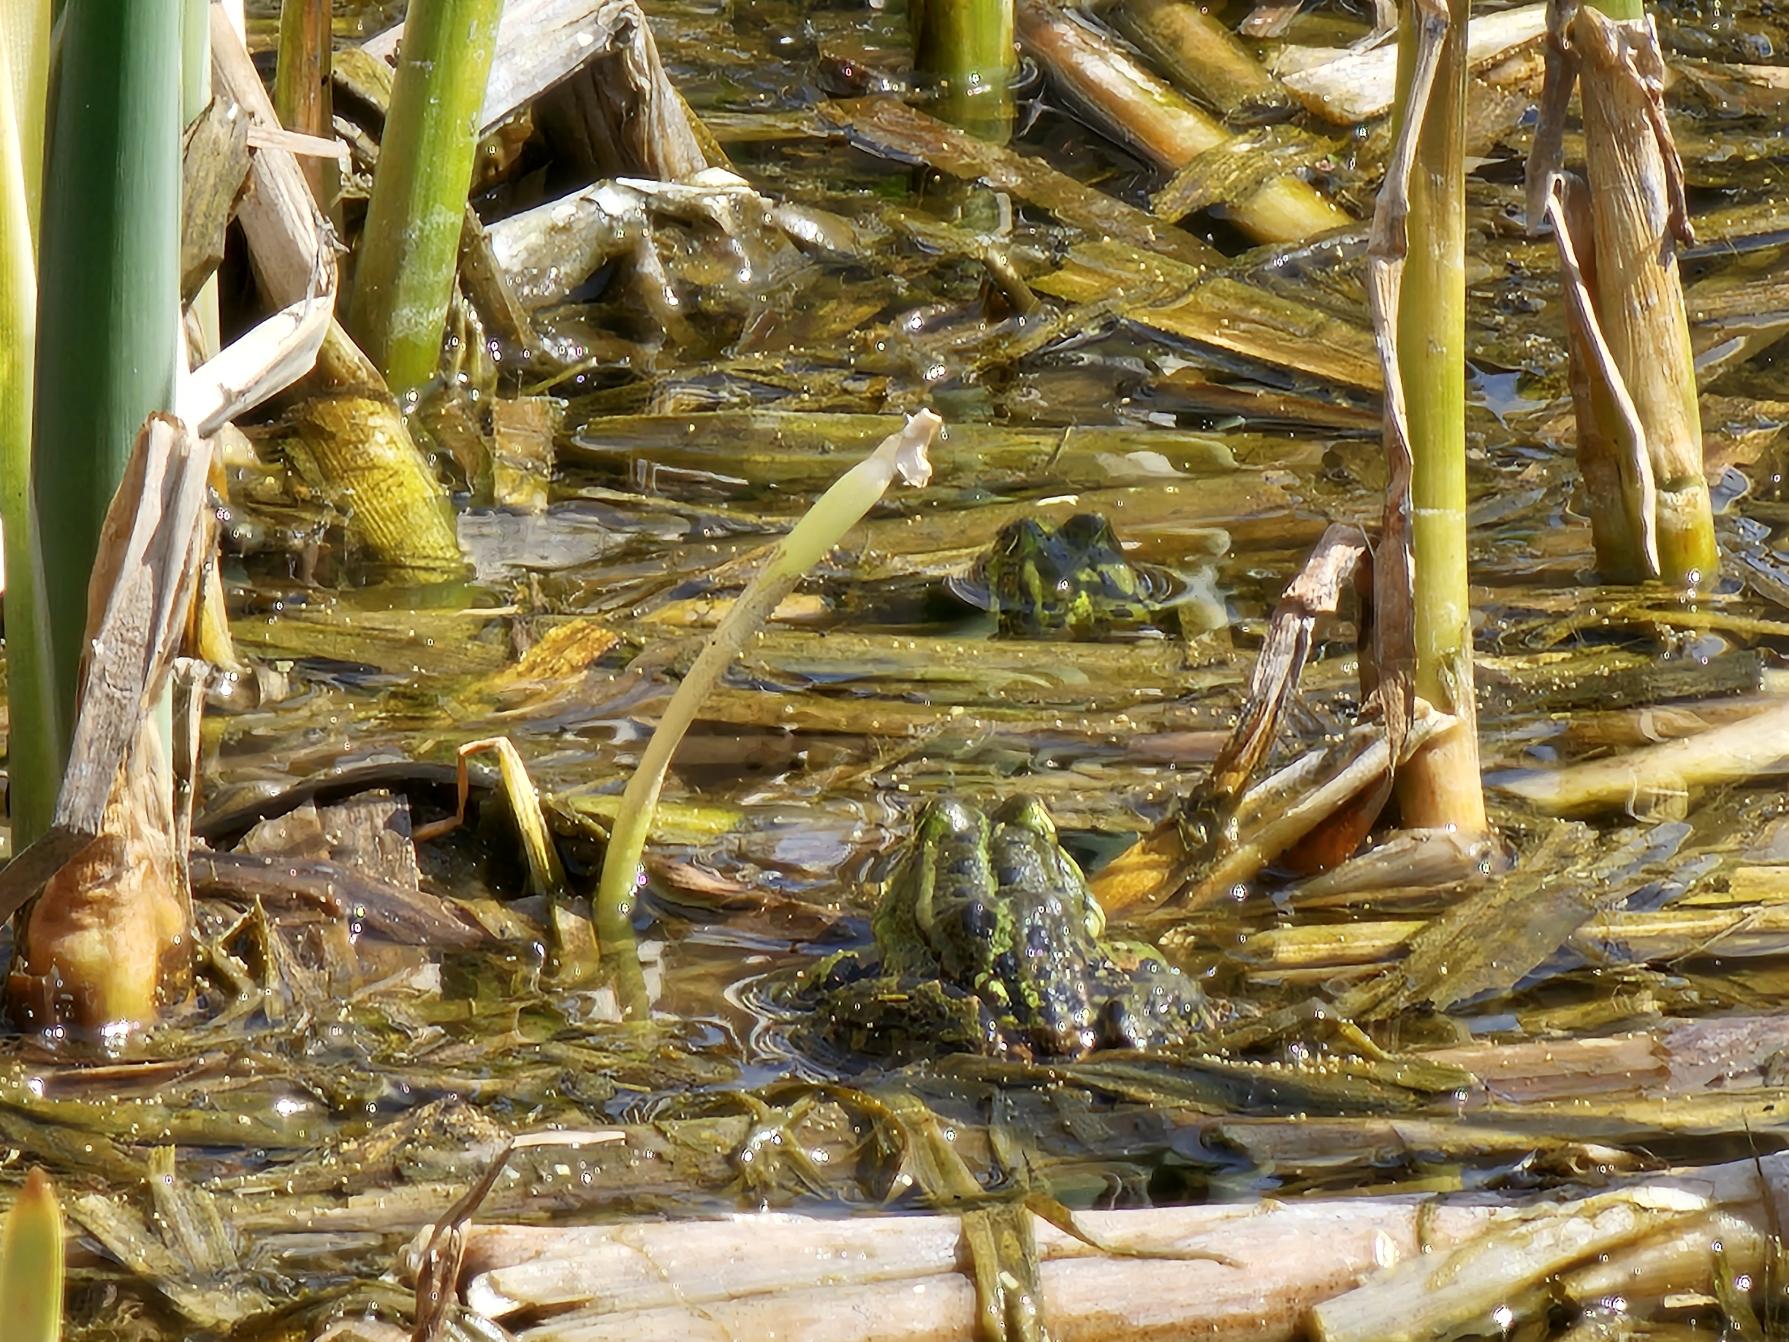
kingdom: Animalia
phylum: Chordata
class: Amphibia
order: Anura
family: Ranidae
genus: Pelophylax
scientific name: Pelophylax lessonae
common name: Grøn frø
